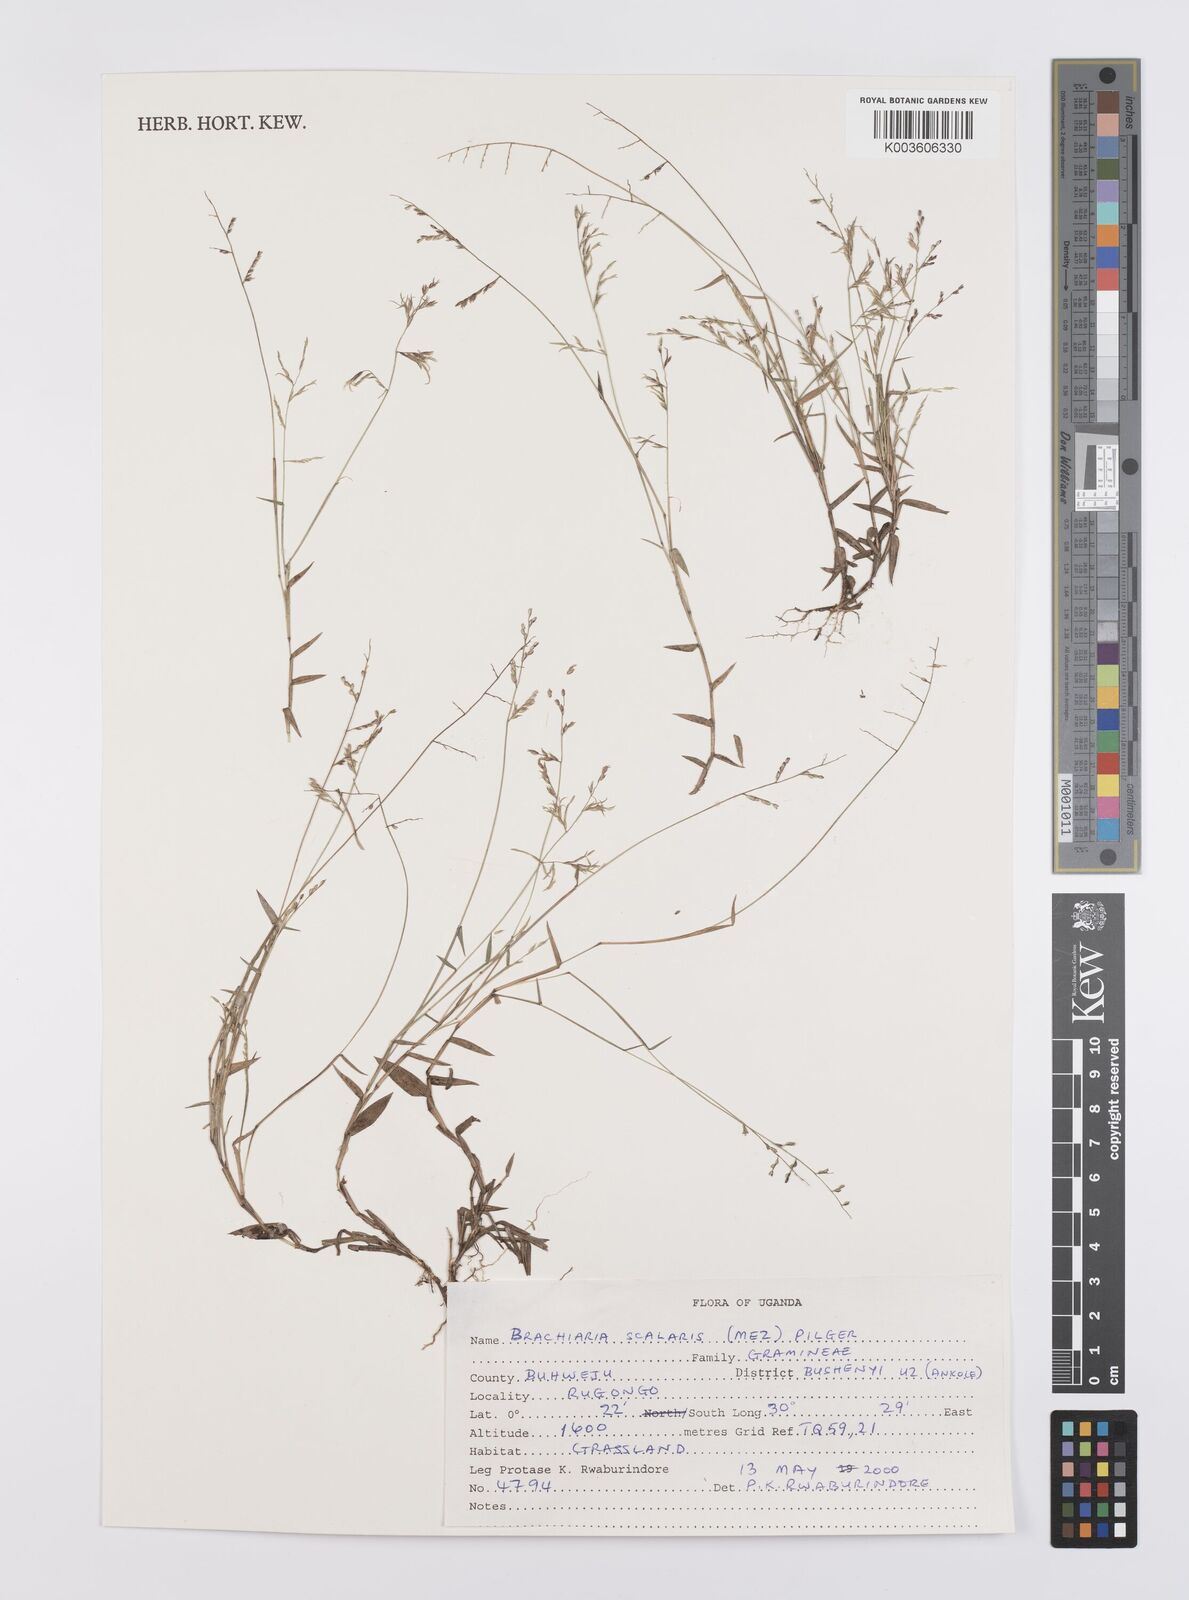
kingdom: Plantae
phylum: Tracheophyta
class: Liliopsida
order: Poales
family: Poaceae
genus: Urochloa
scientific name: Urochloa comata
